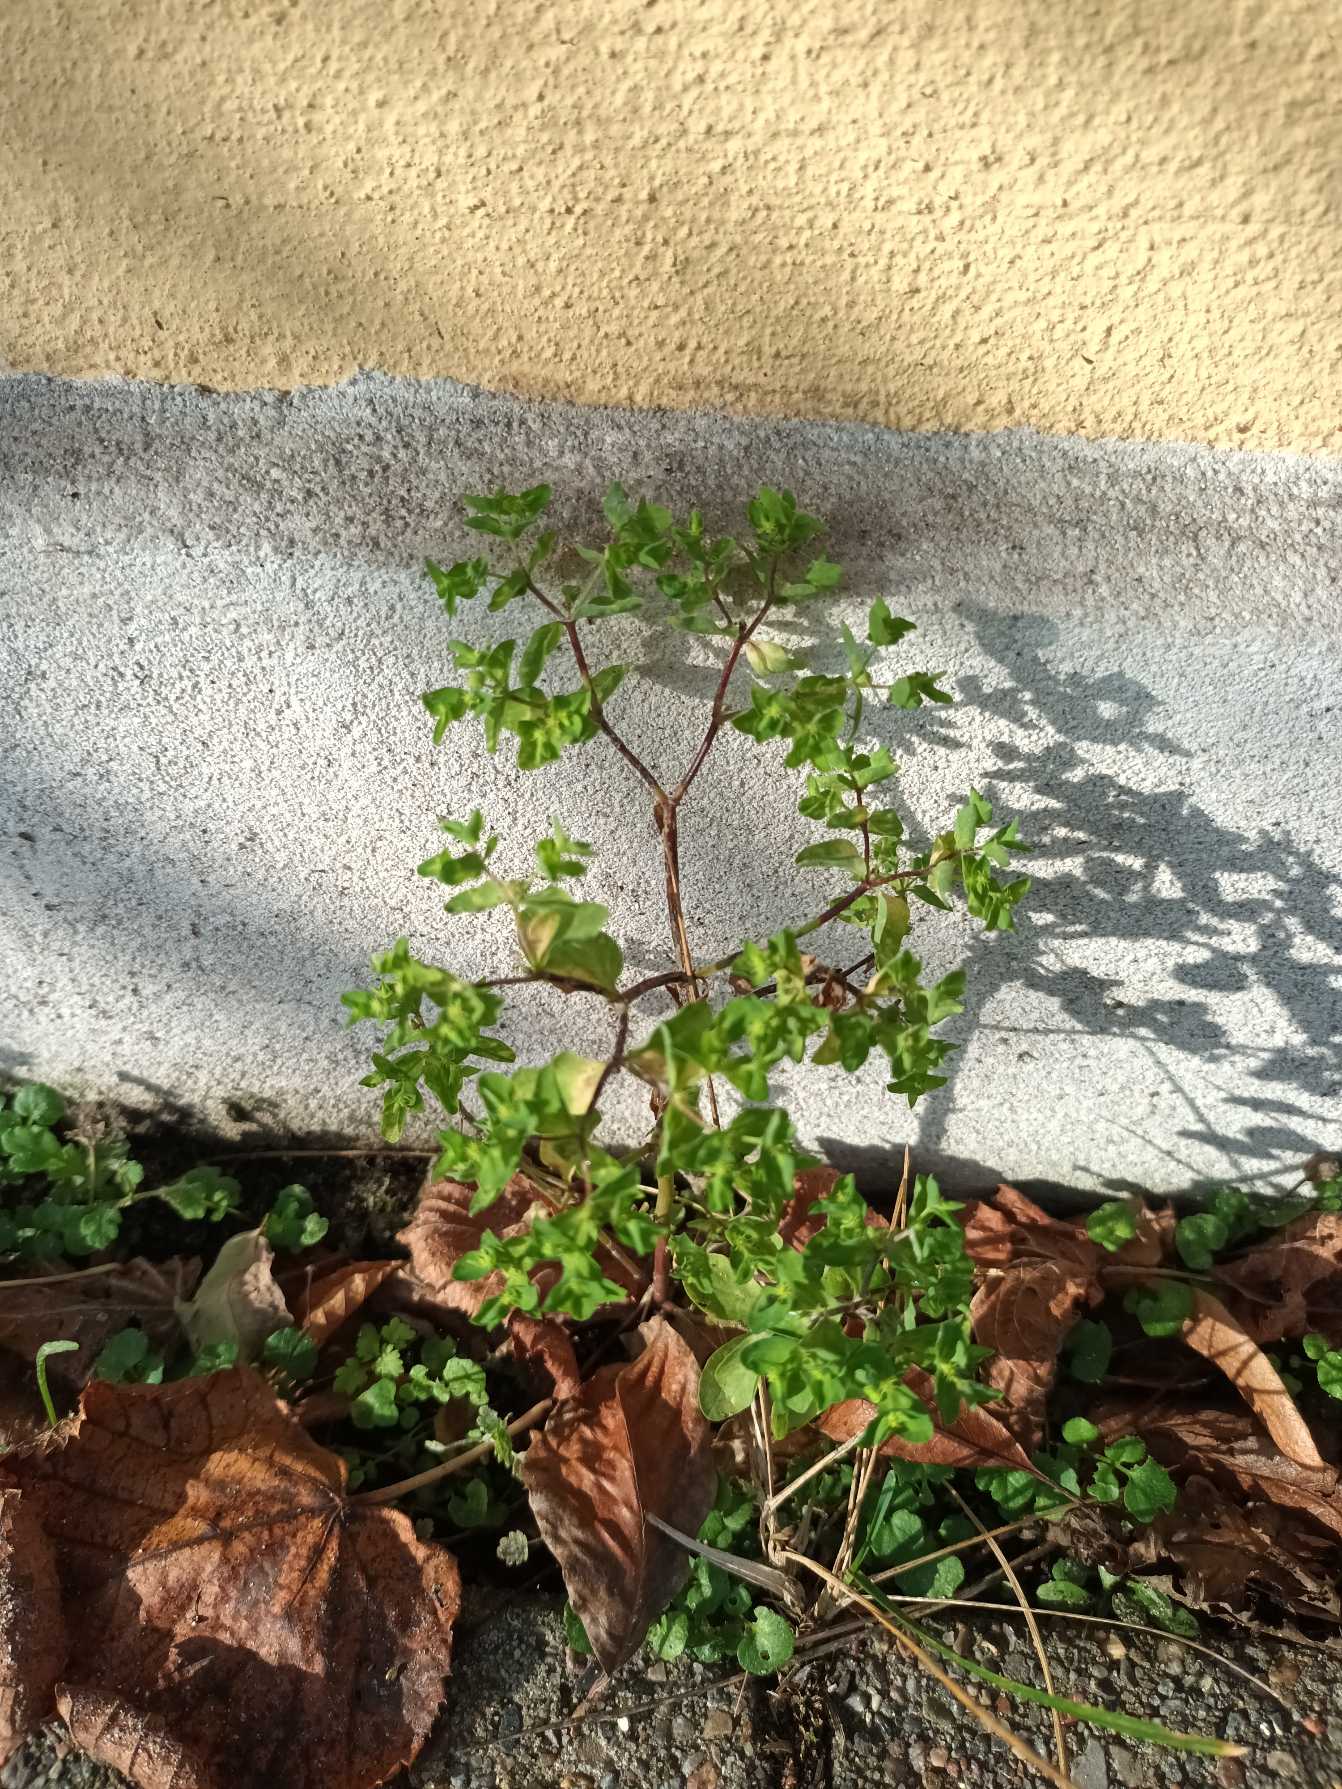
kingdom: Plantae
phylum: Tracheophyta
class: Magnoliopsida
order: Malpighiales
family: Euphorbiaceae
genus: Euphorbia
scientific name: Euphorbia peplus
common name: Gaffel-vortemælk
